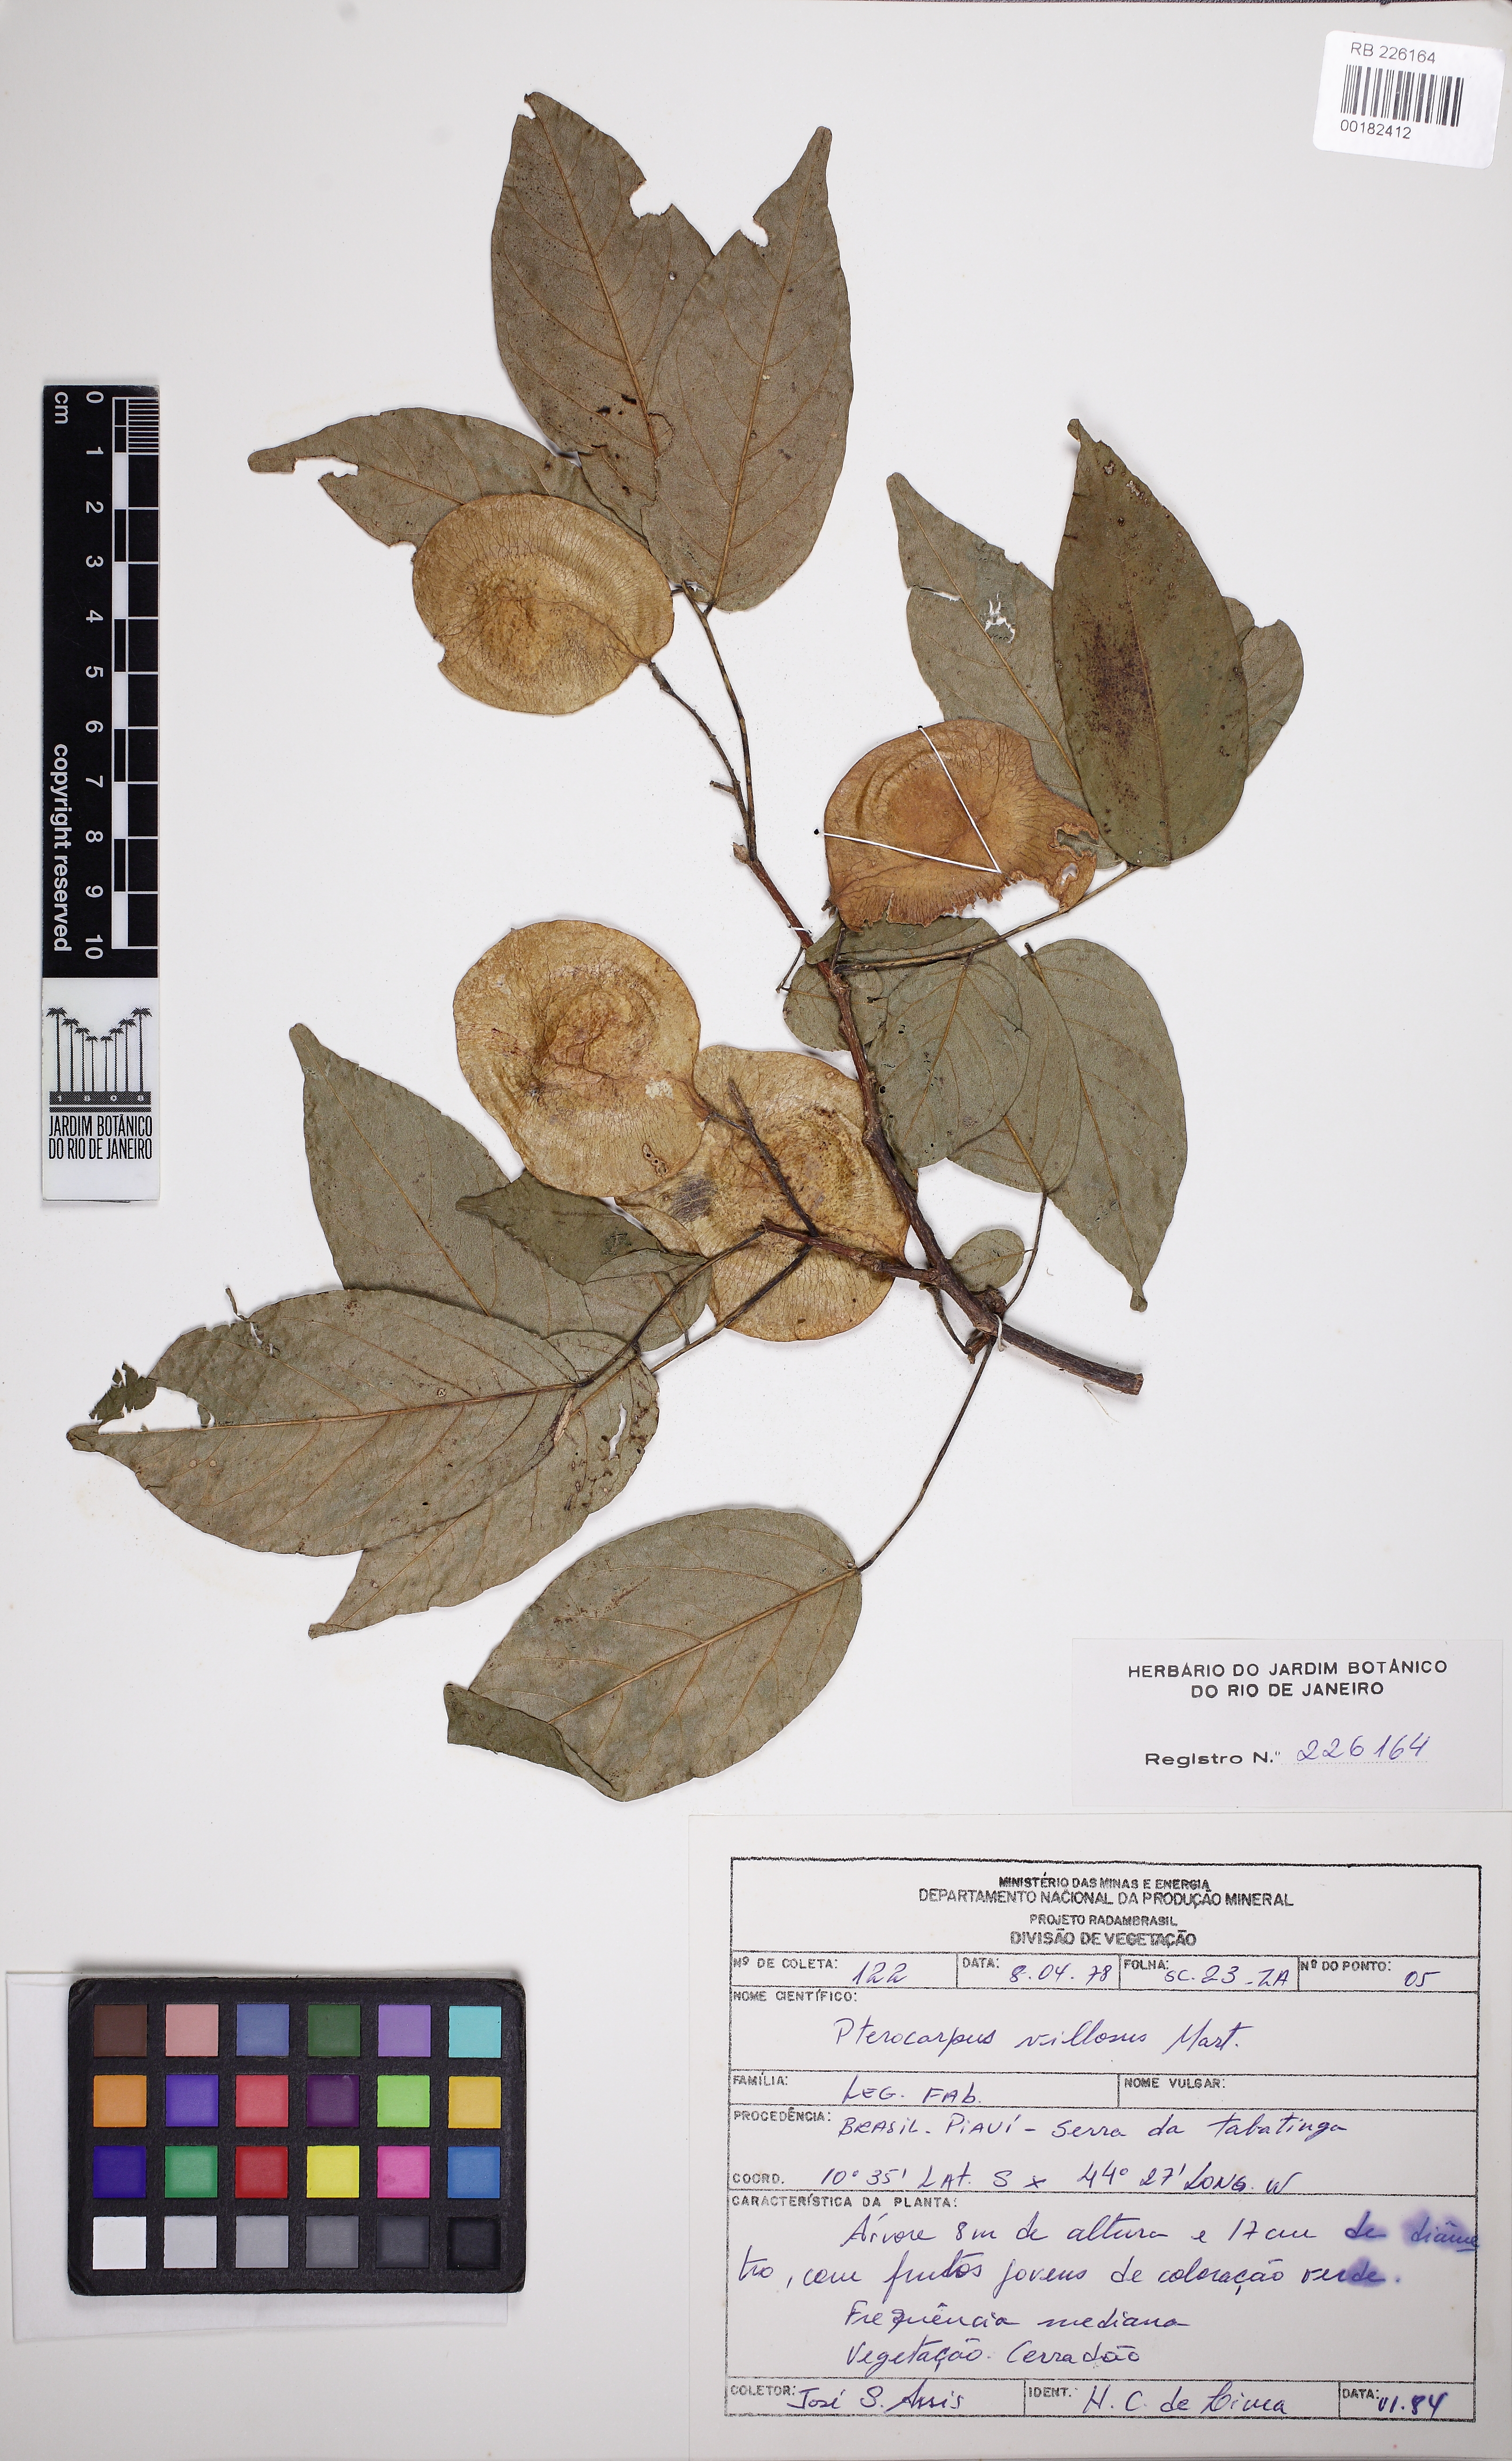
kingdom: Plantae
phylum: Tracheophyta
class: Magnoliopsida
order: Fabales
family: Fabaceae
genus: Pterocarpus
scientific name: Pterocarpus villosus
